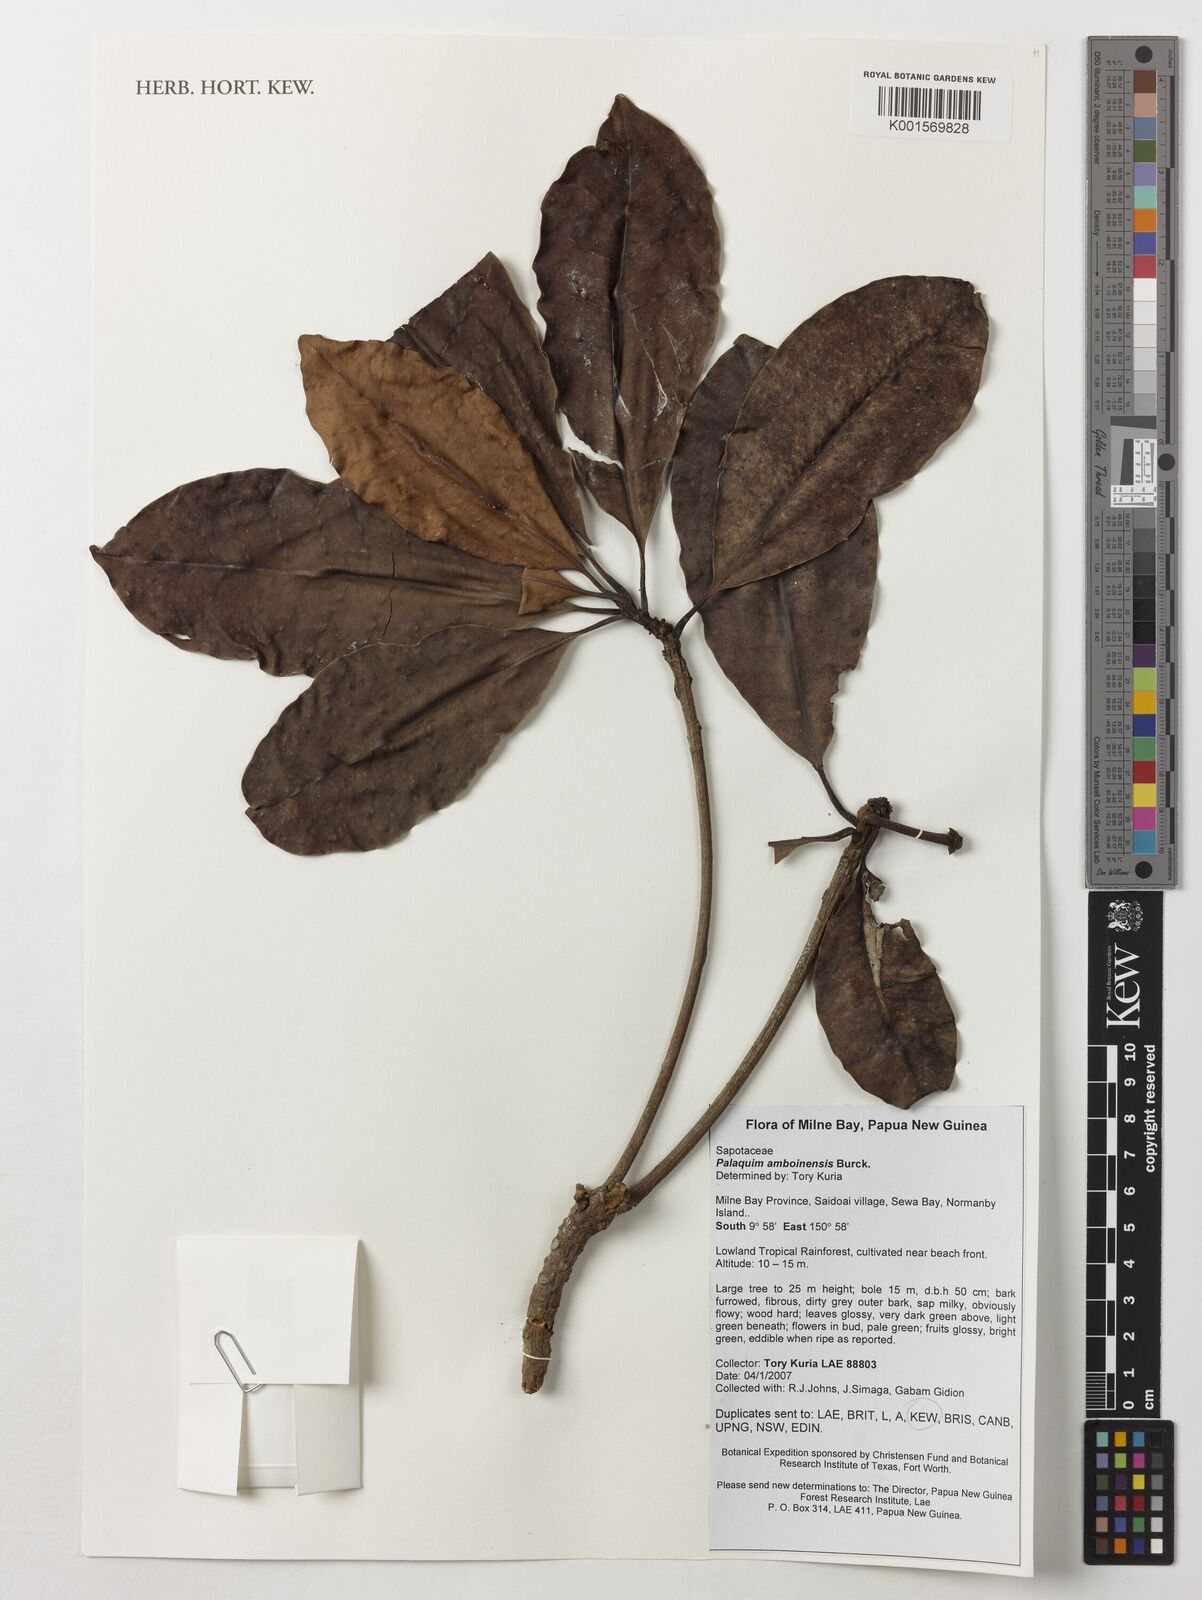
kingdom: Plantae
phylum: Tracheophyta
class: Magnoliopsida
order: Ericales
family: Sapotaceae
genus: Palaquium
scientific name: Palaquium amboinense
